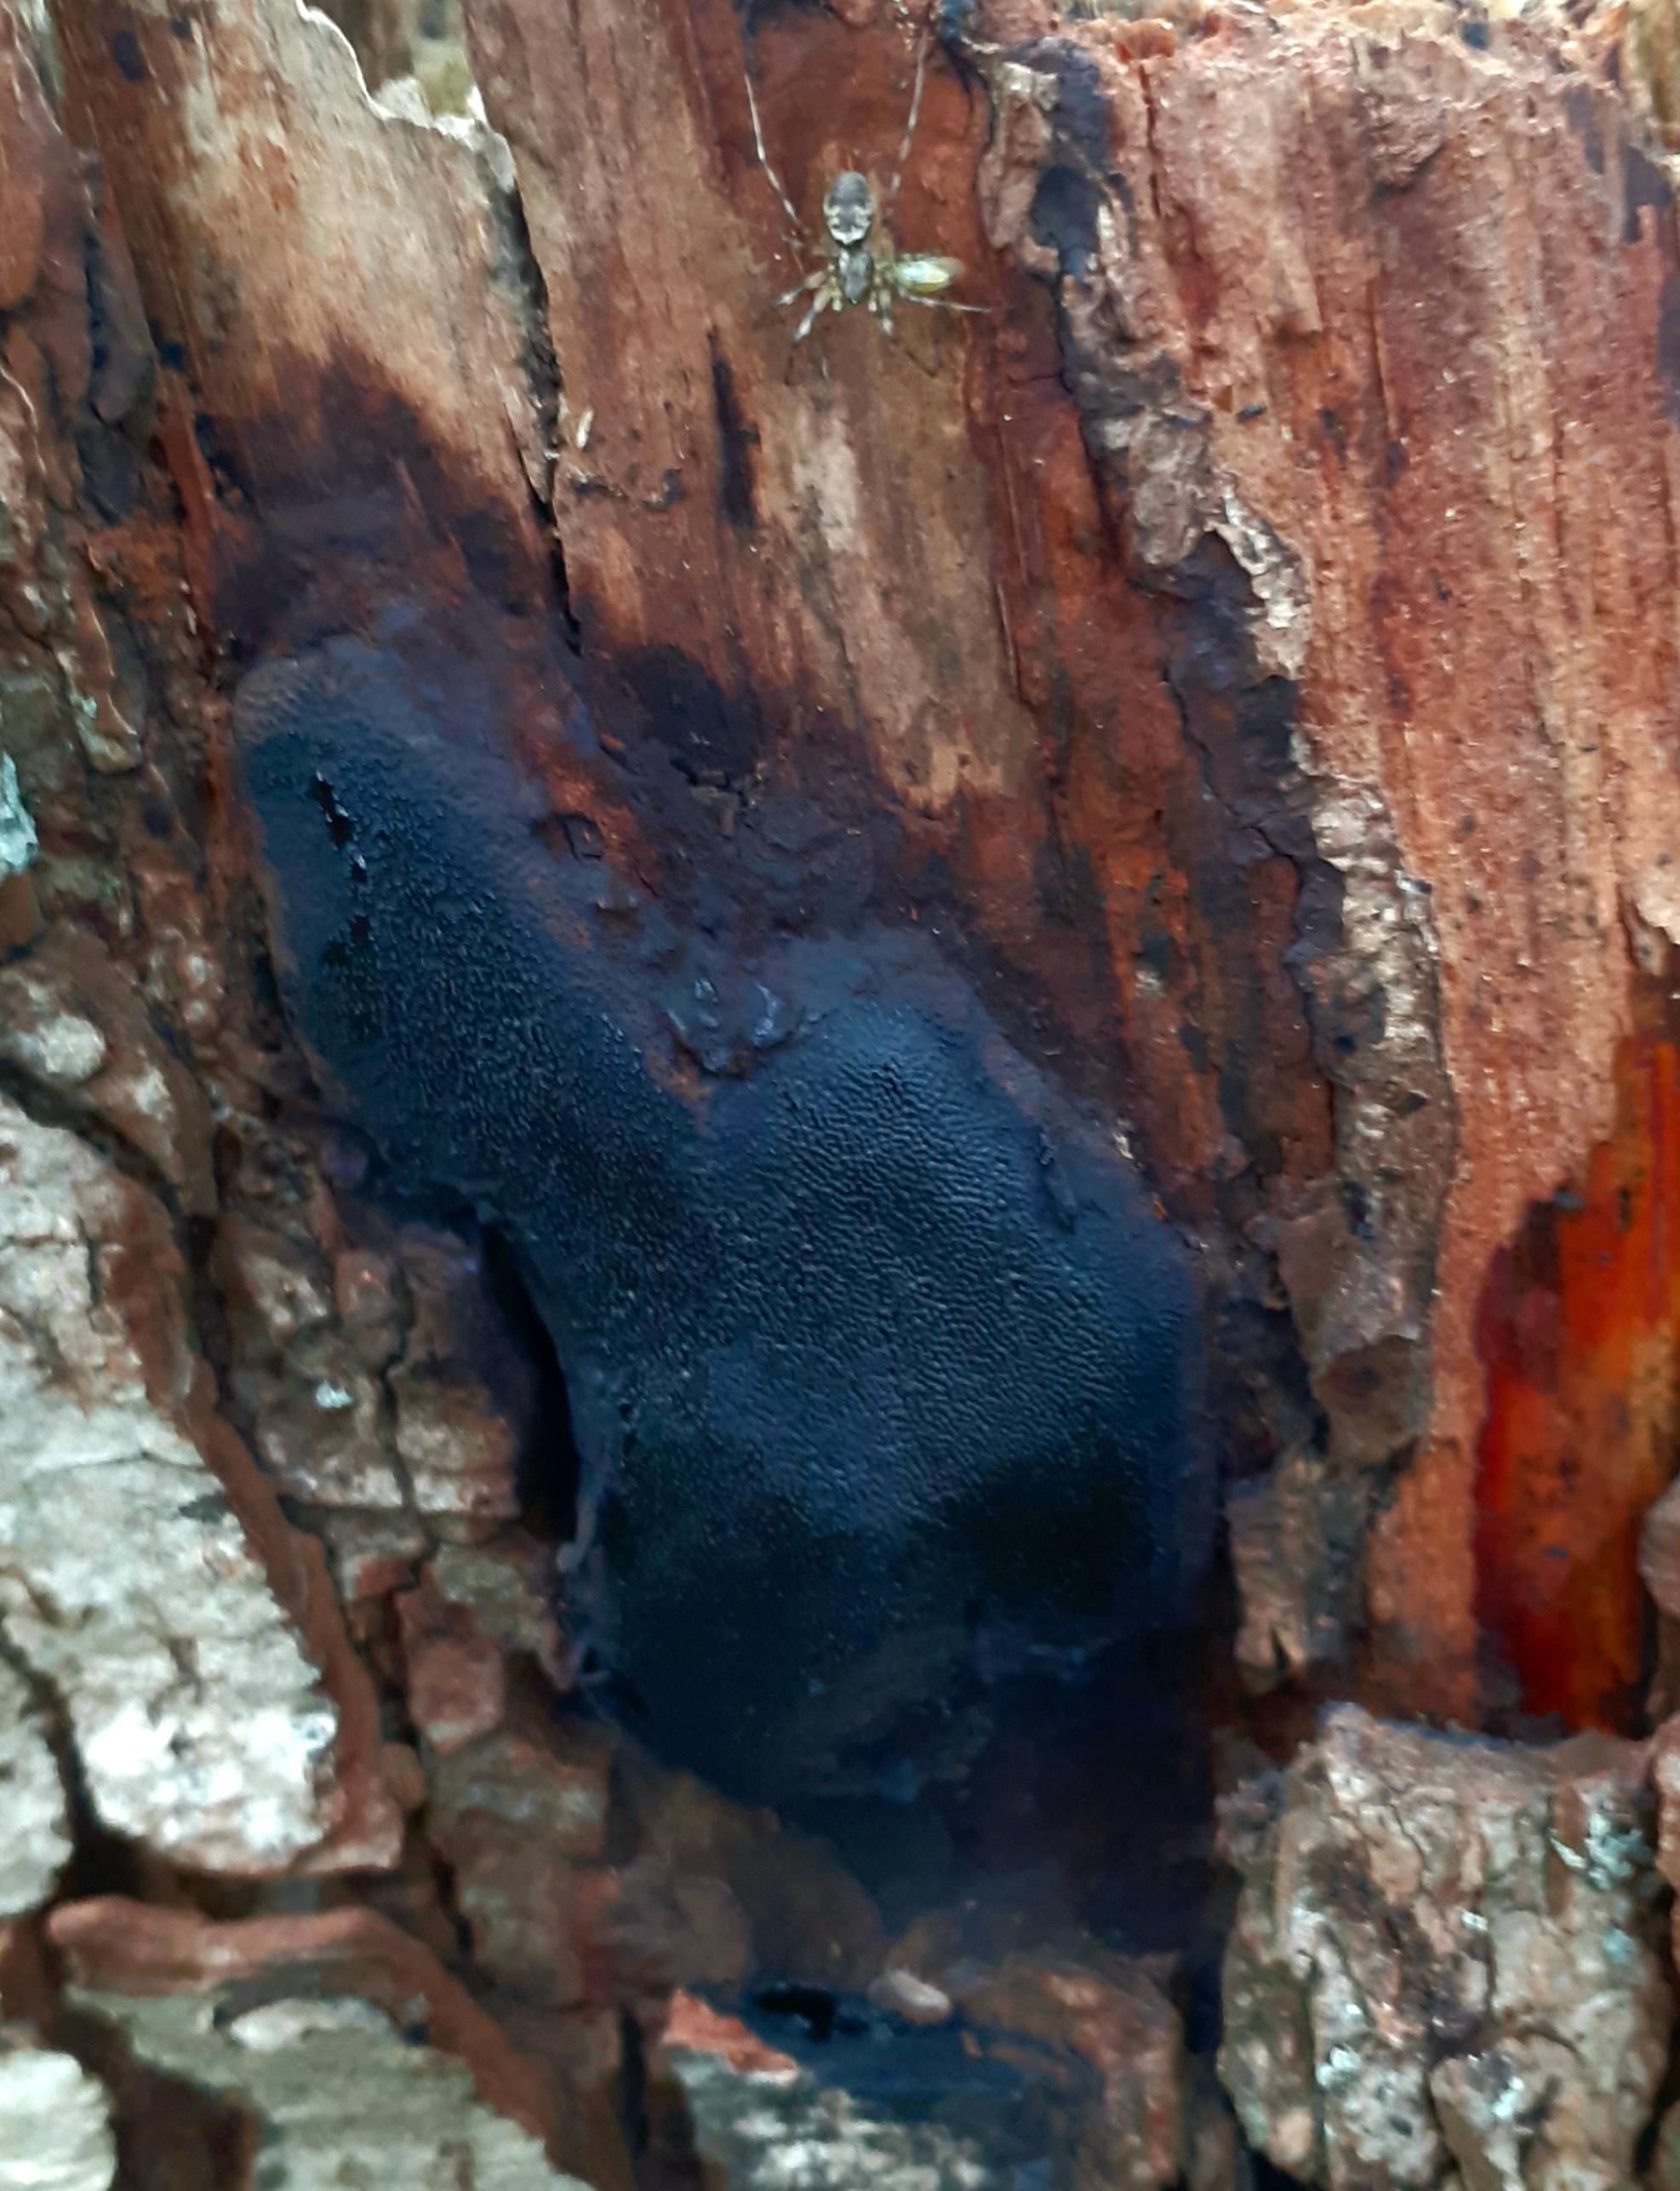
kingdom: Fungi
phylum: Ascomycota
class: Sordariomycetes
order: Boliniales
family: Boliniaceae
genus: Camarops
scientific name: Camarops polysperma
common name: elle-kulsnegl
